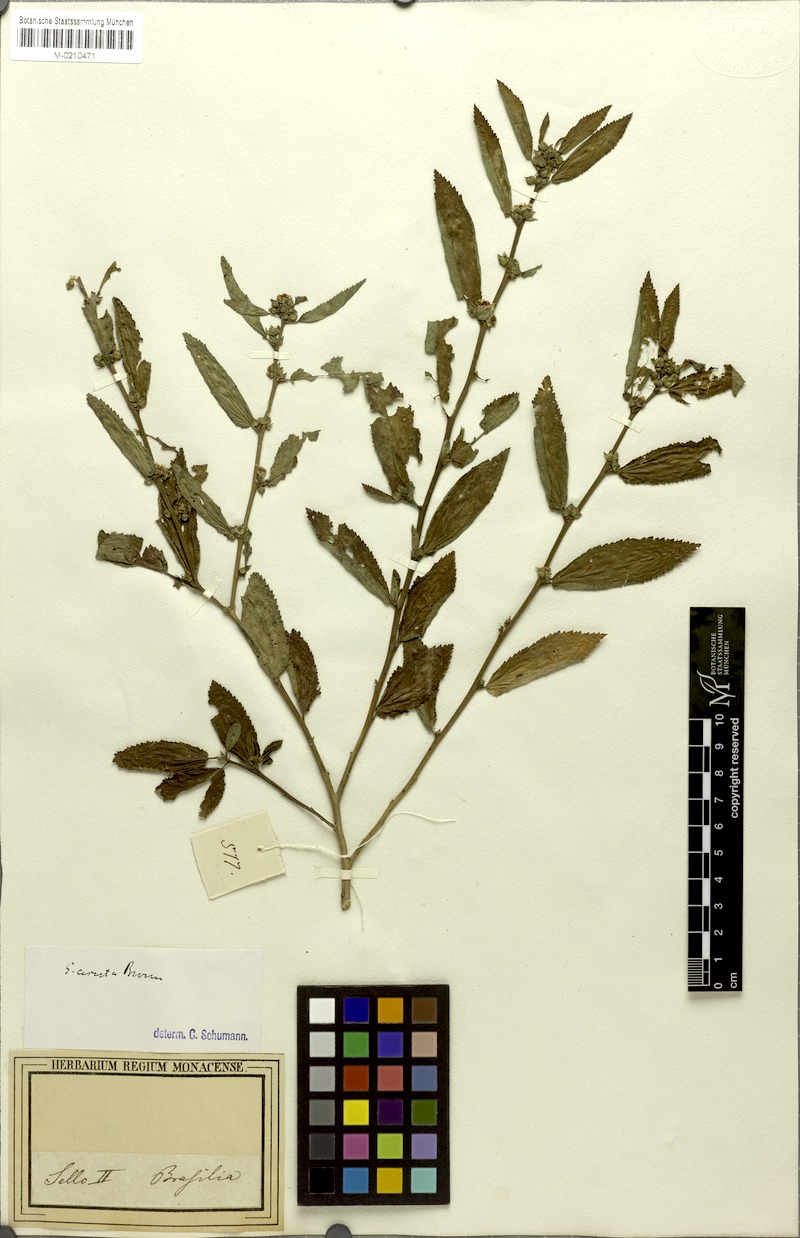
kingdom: Plantae
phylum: Tracheophyta
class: Magnoliopsida
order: Malvales
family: Malvaceae
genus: Sida
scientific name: Sida acuta
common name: Common wireweed
